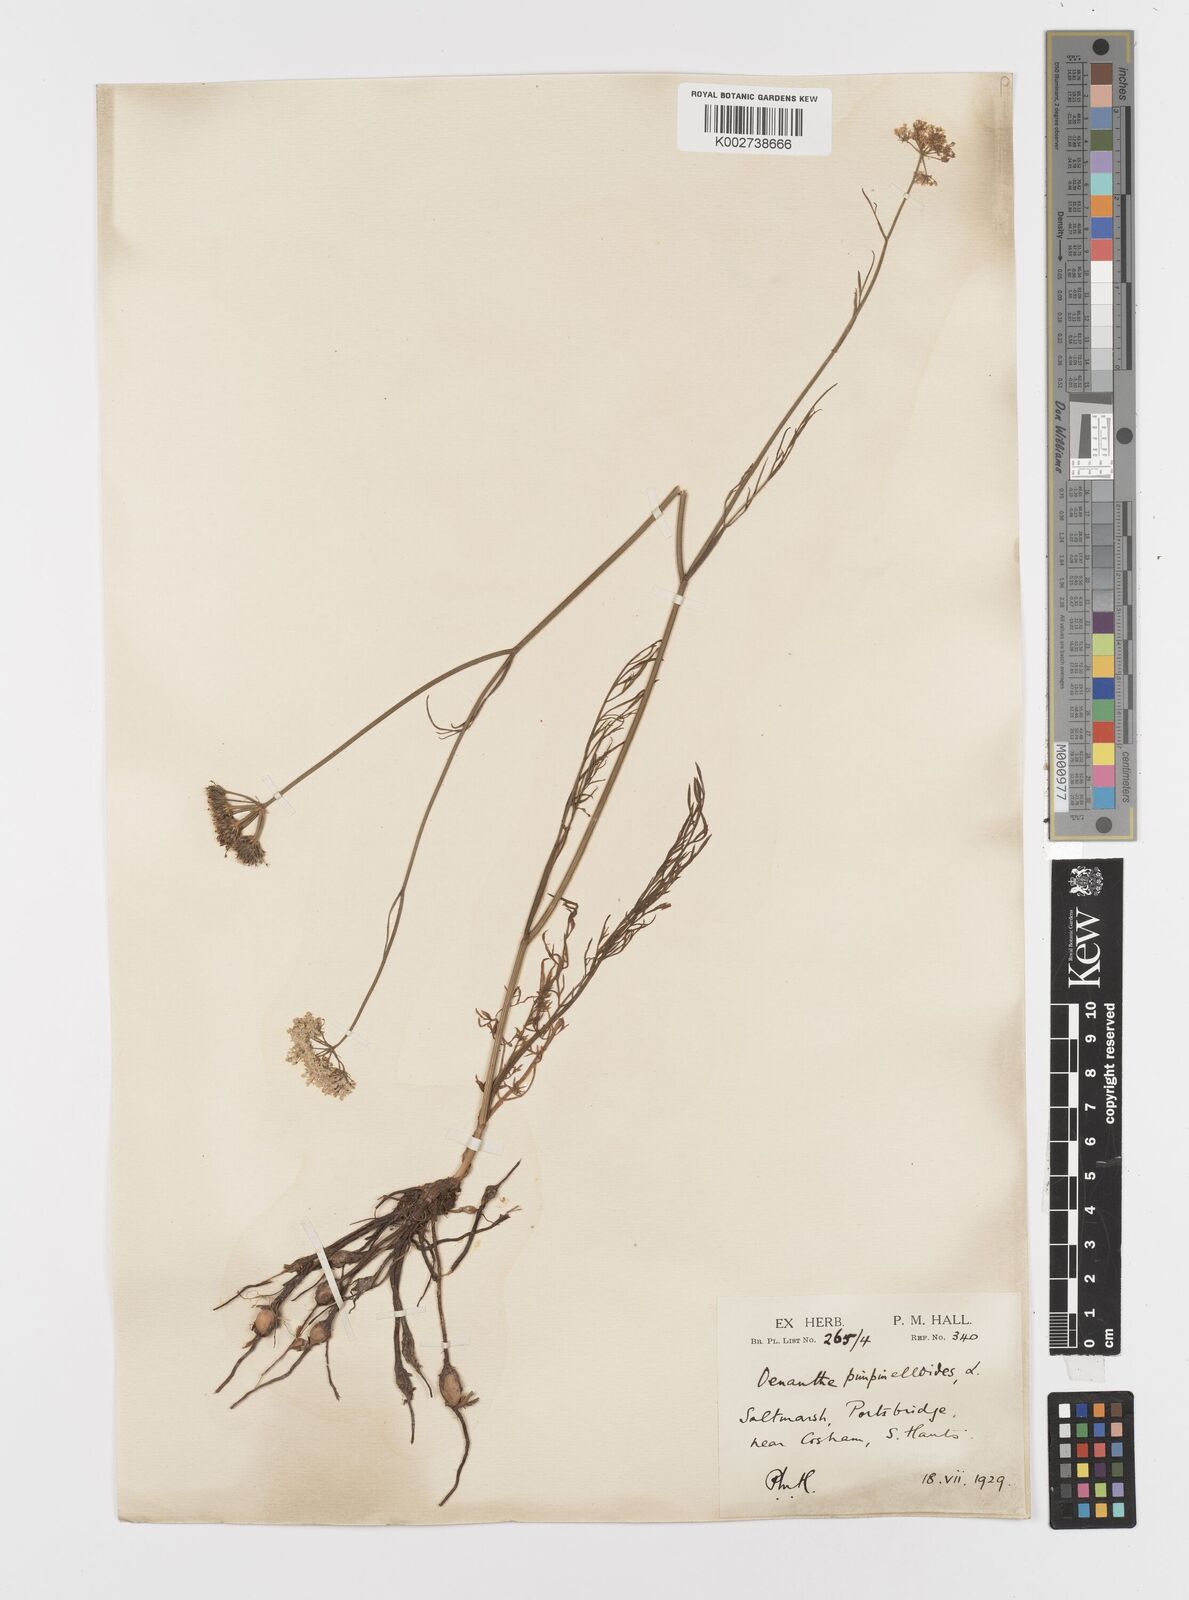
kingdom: Plantae
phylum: Tracheophyta
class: Magnoliopsida
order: Apiales
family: Apiaceae
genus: Oenanthe
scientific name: Oenanthe pimpinelloides
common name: Corky-fruited water-dropwort
